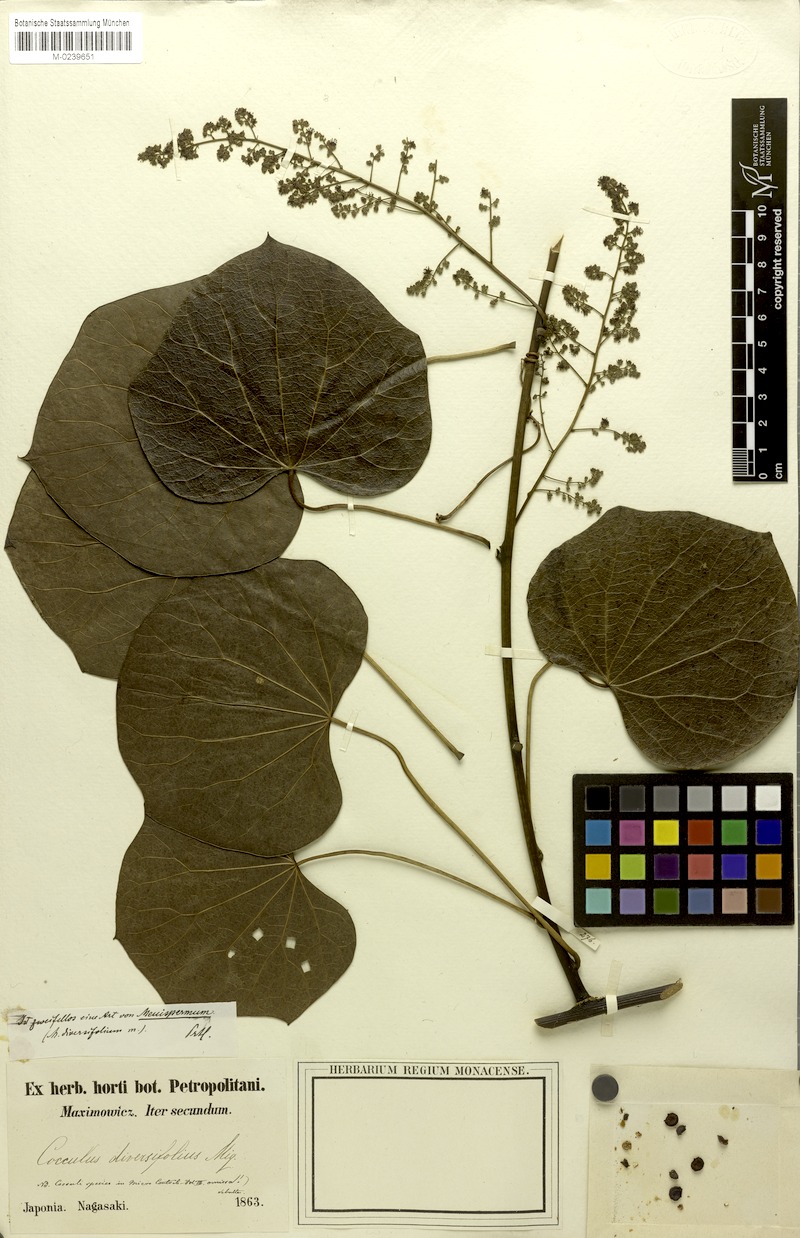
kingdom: Plantae
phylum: Tracheophyta
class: Magnoliopsida
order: Ranunculales
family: Menispermaceae
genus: Sinomenium
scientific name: Sinomenium acutum
